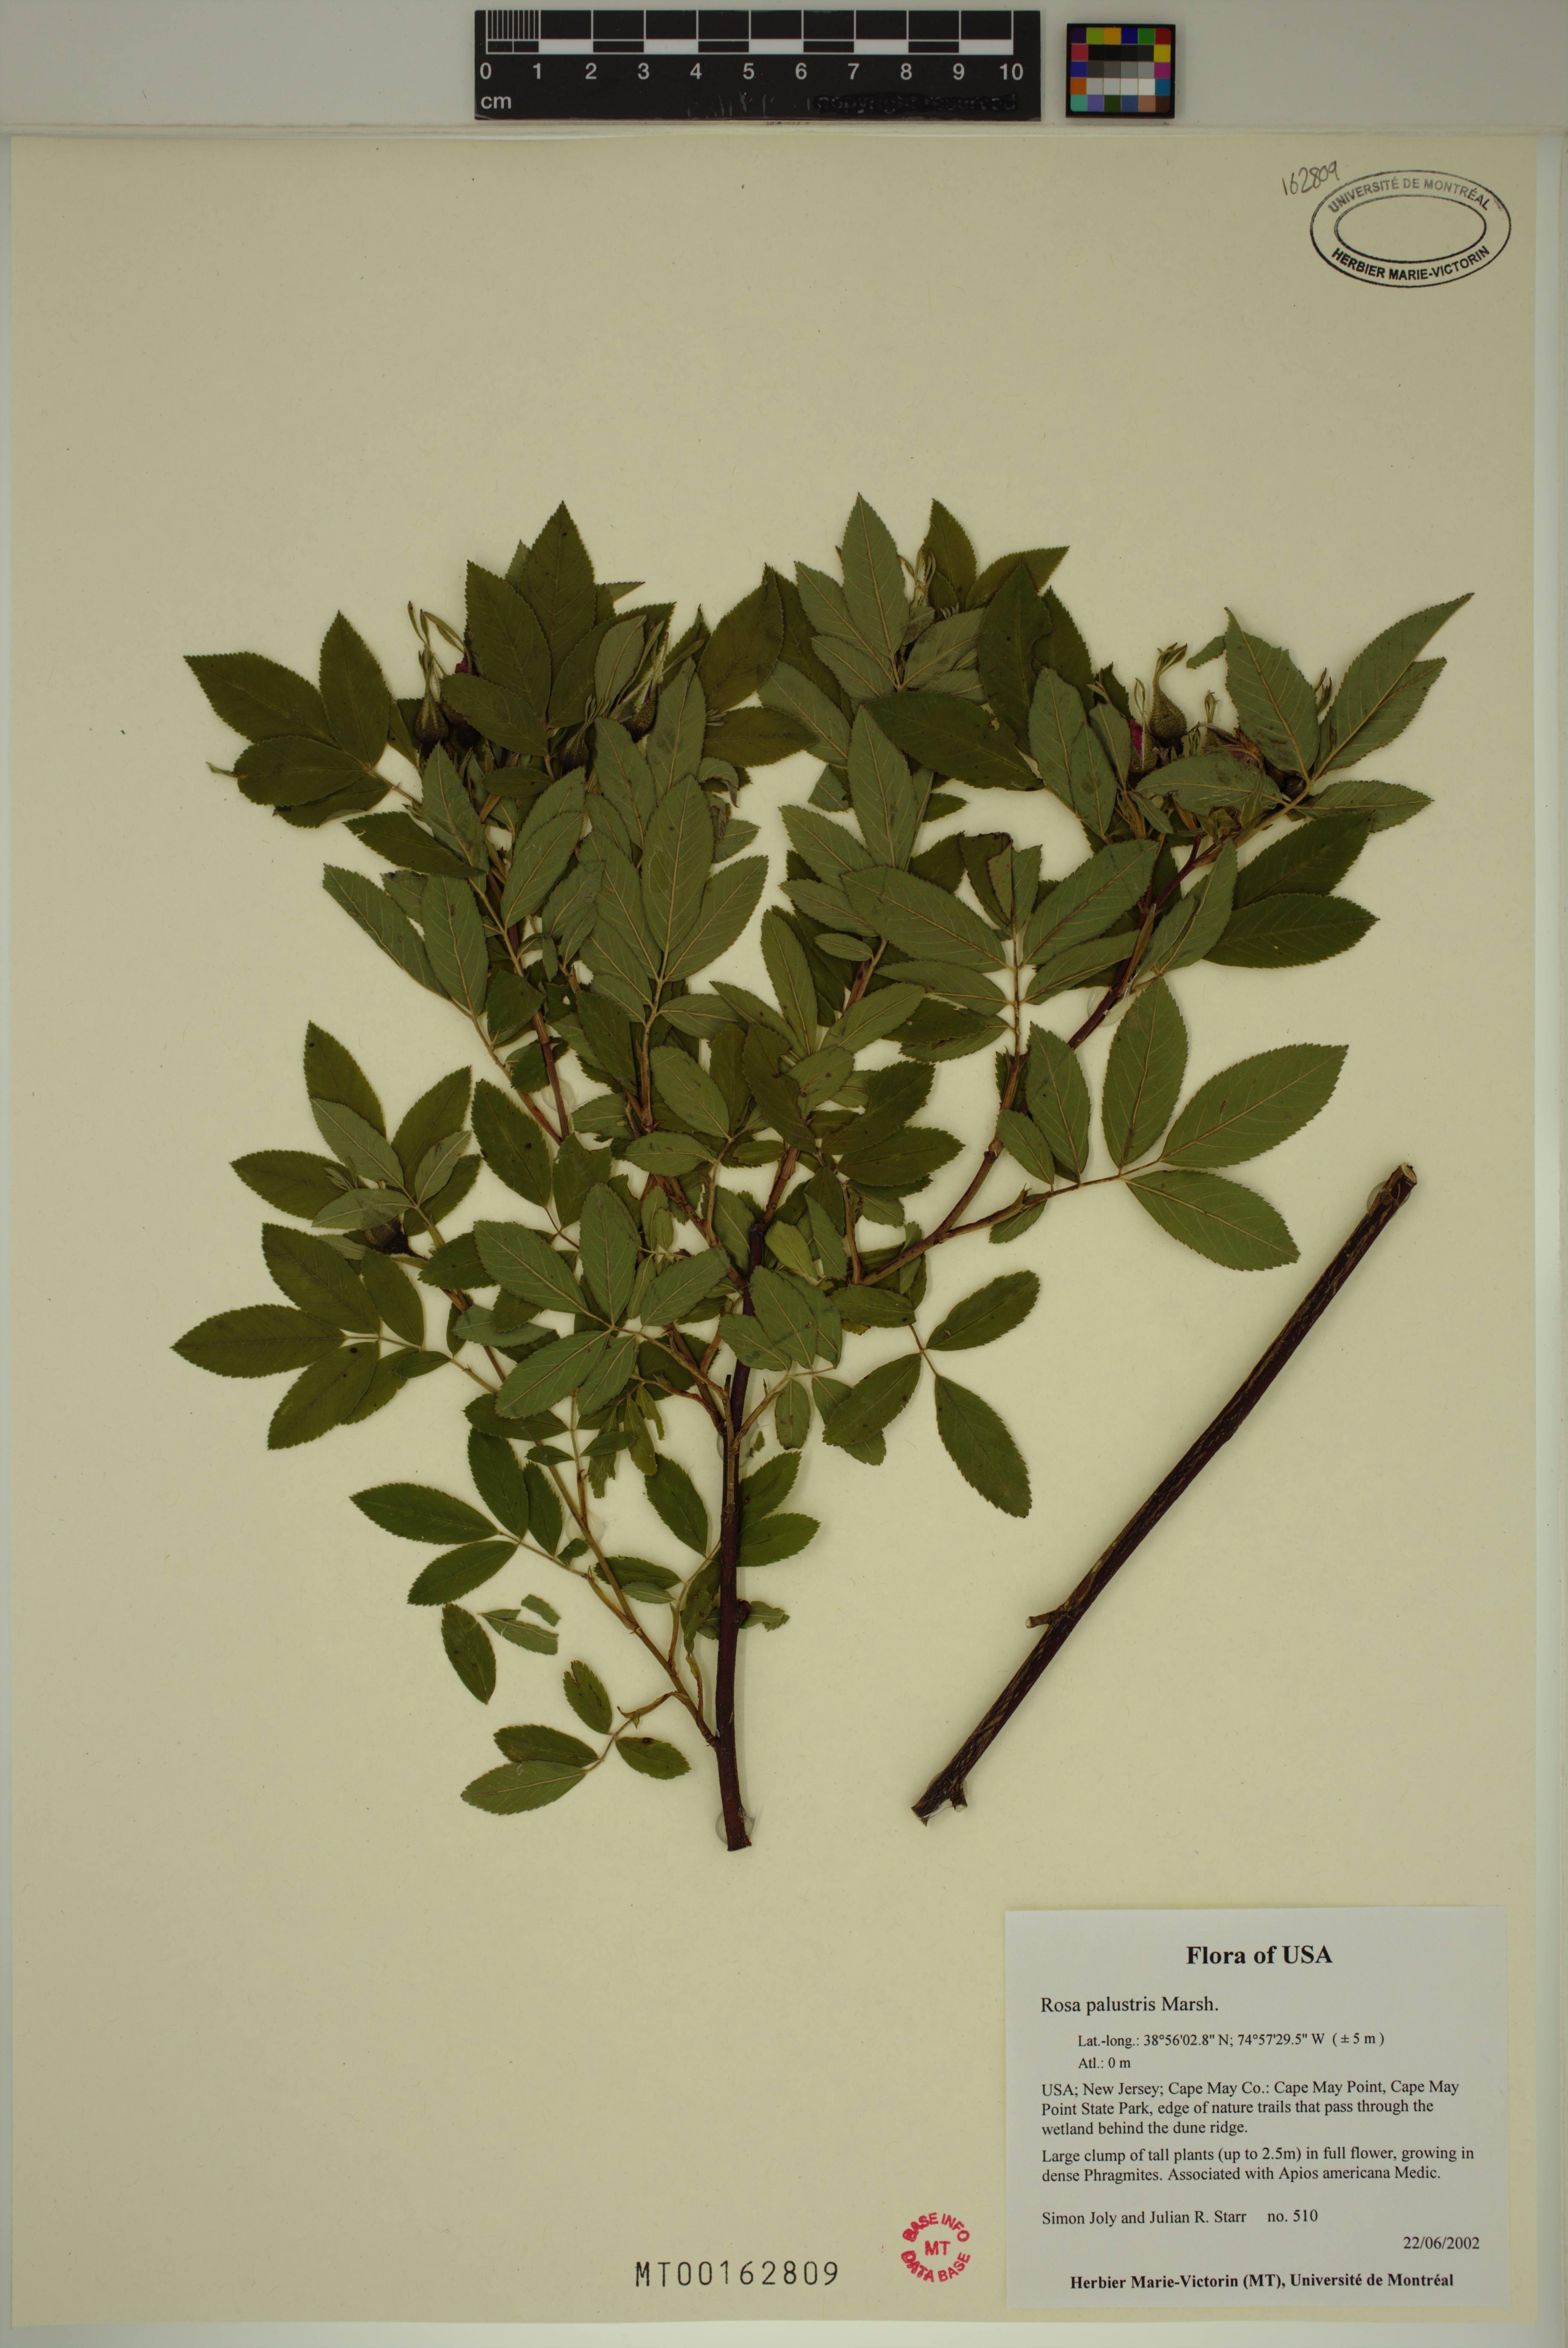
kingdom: Plantae
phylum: Tracheophyta
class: Magnoliopsida
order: Rosales
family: Rosaceae
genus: Rosa
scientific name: Rosa palustris
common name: Swamp rose
